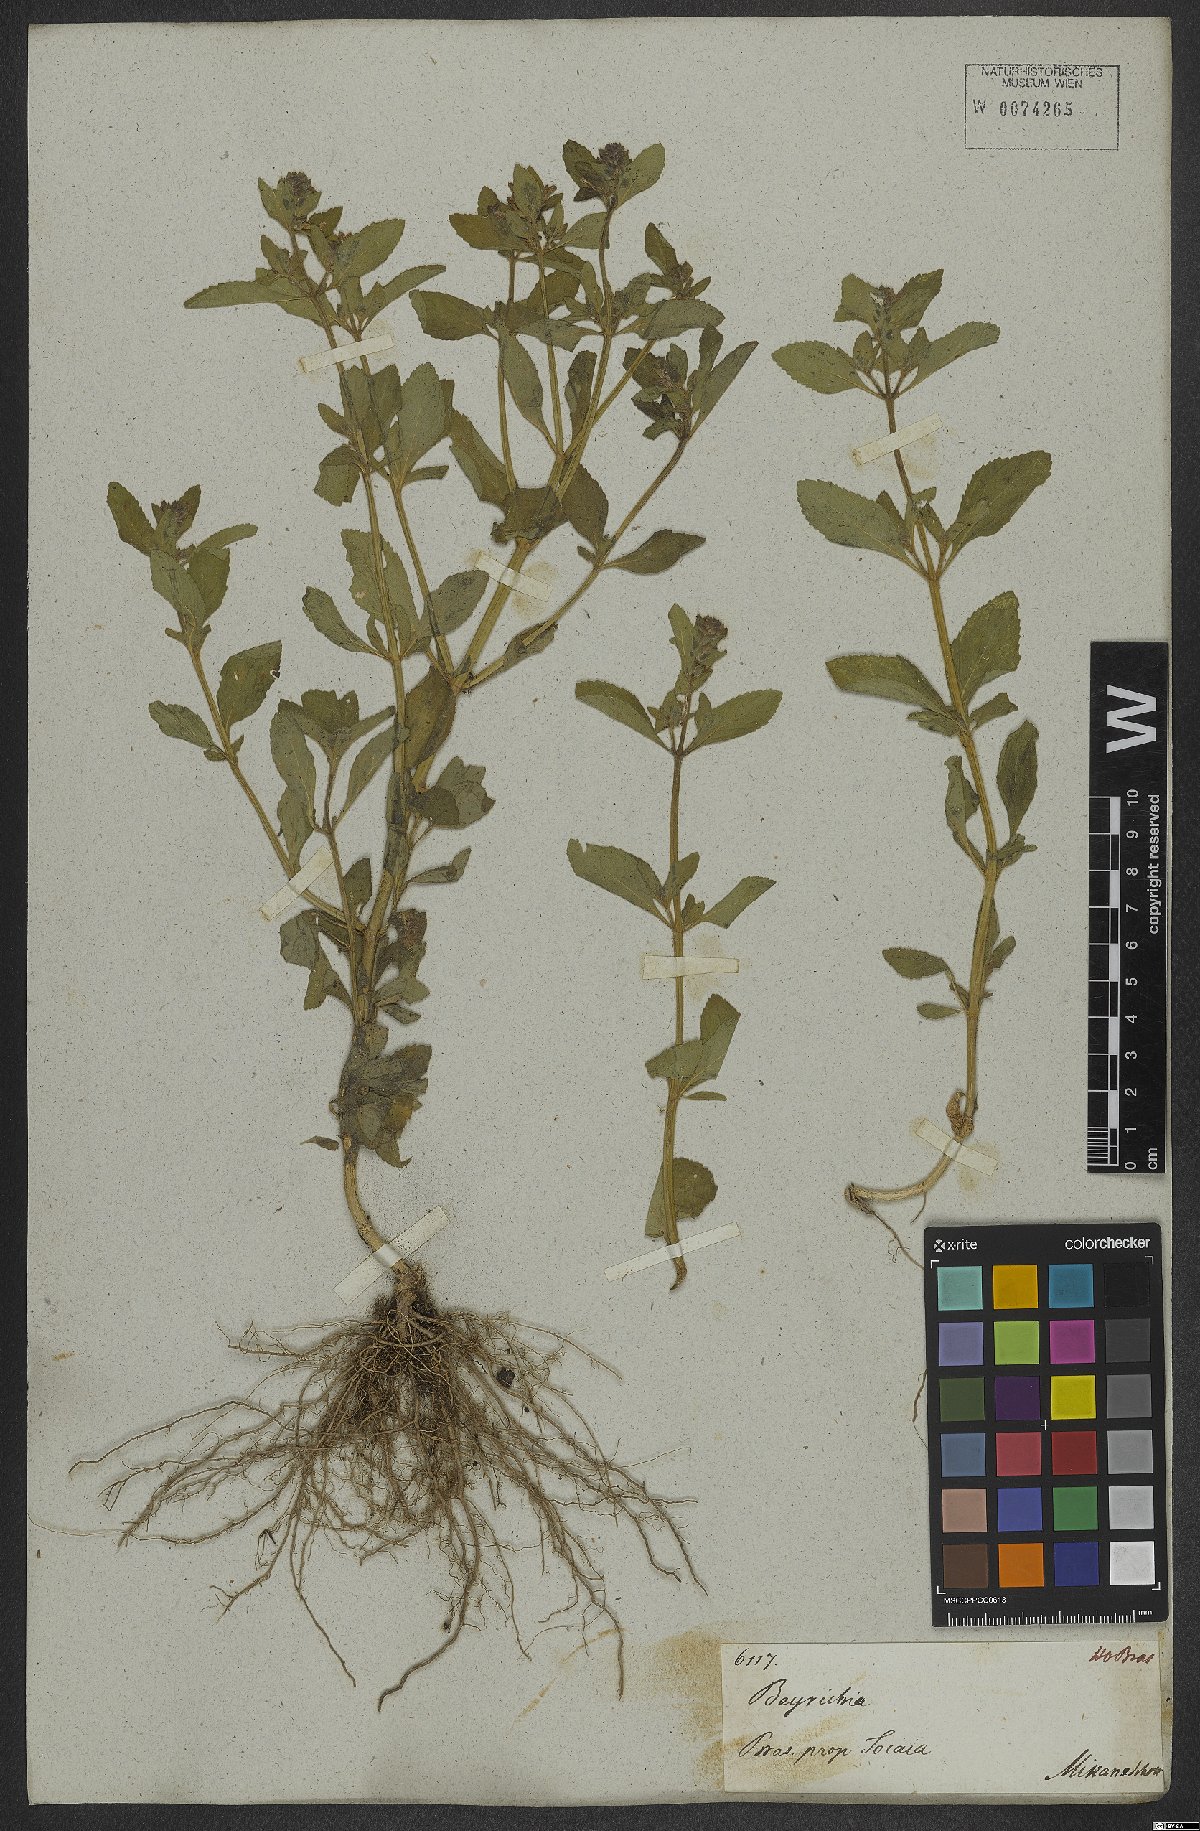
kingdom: Plantae
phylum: Tracheophyta
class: Magnoliopsida
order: Lamiales
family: Plantaginaceae
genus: Matourea
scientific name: Matourea
